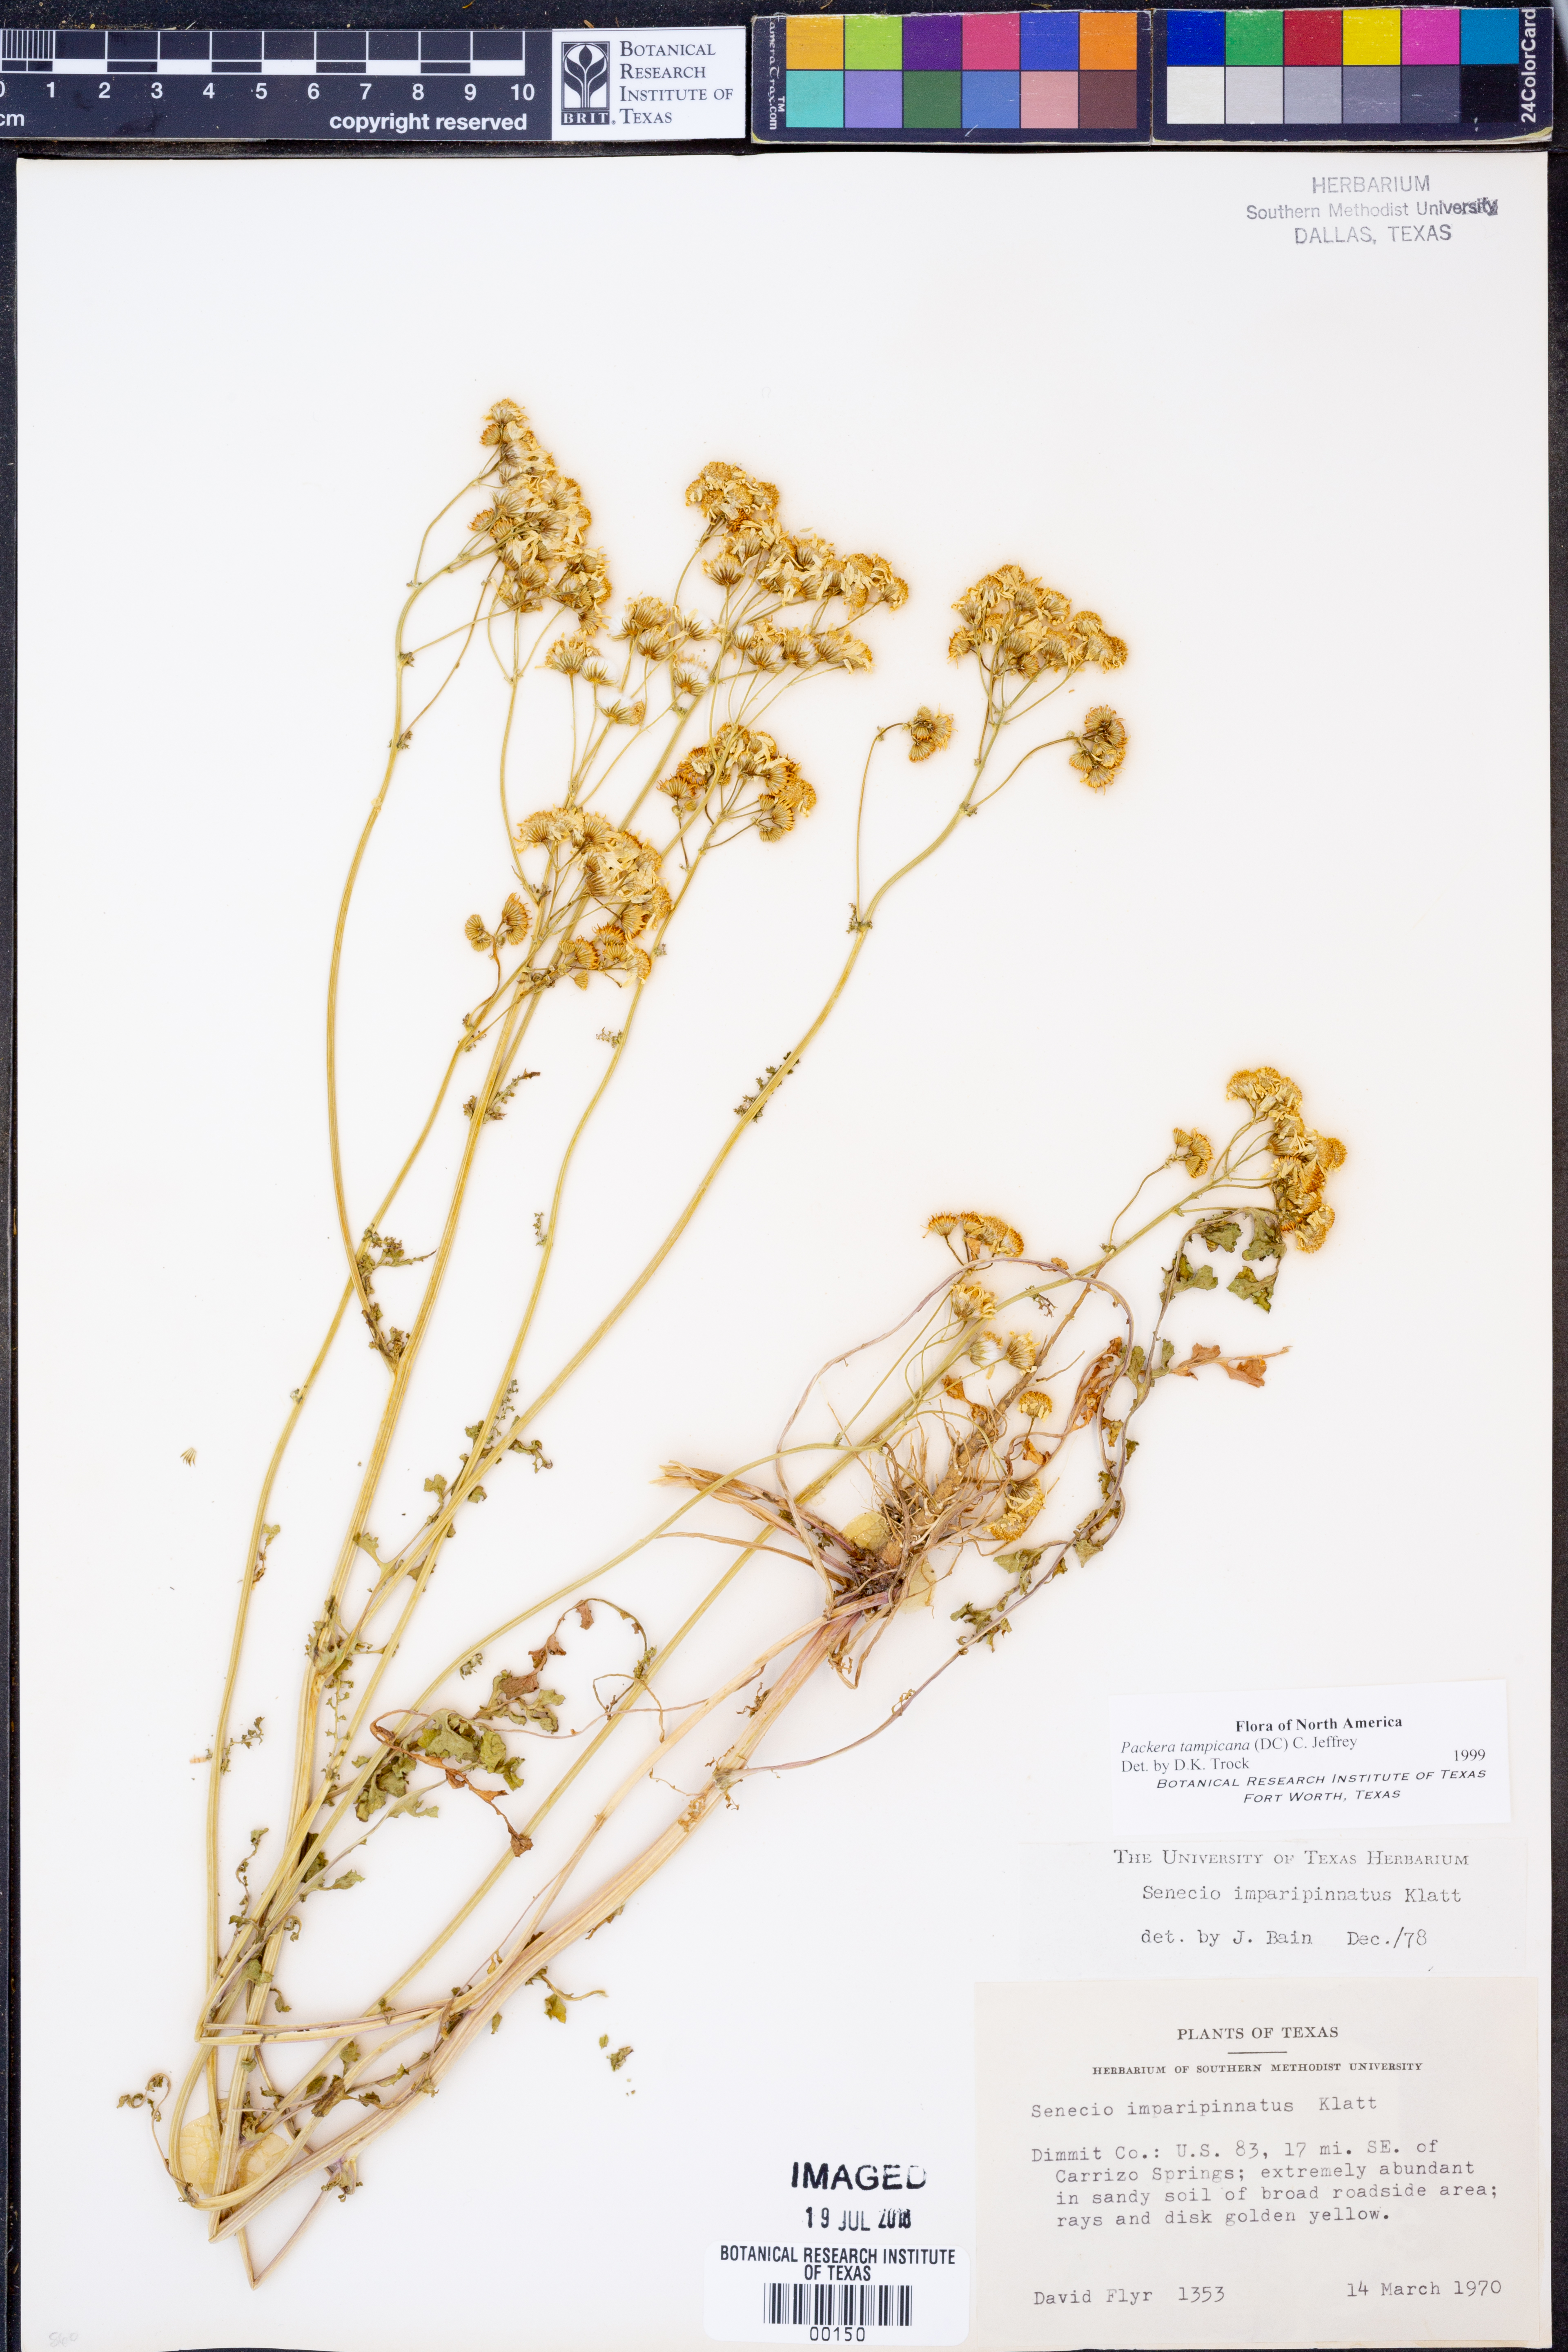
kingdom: Plantae
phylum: Tracheophyta
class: Magnoliopsida
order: Asterales
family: Asteraceae
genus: Packera
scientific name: Packera tampicana
